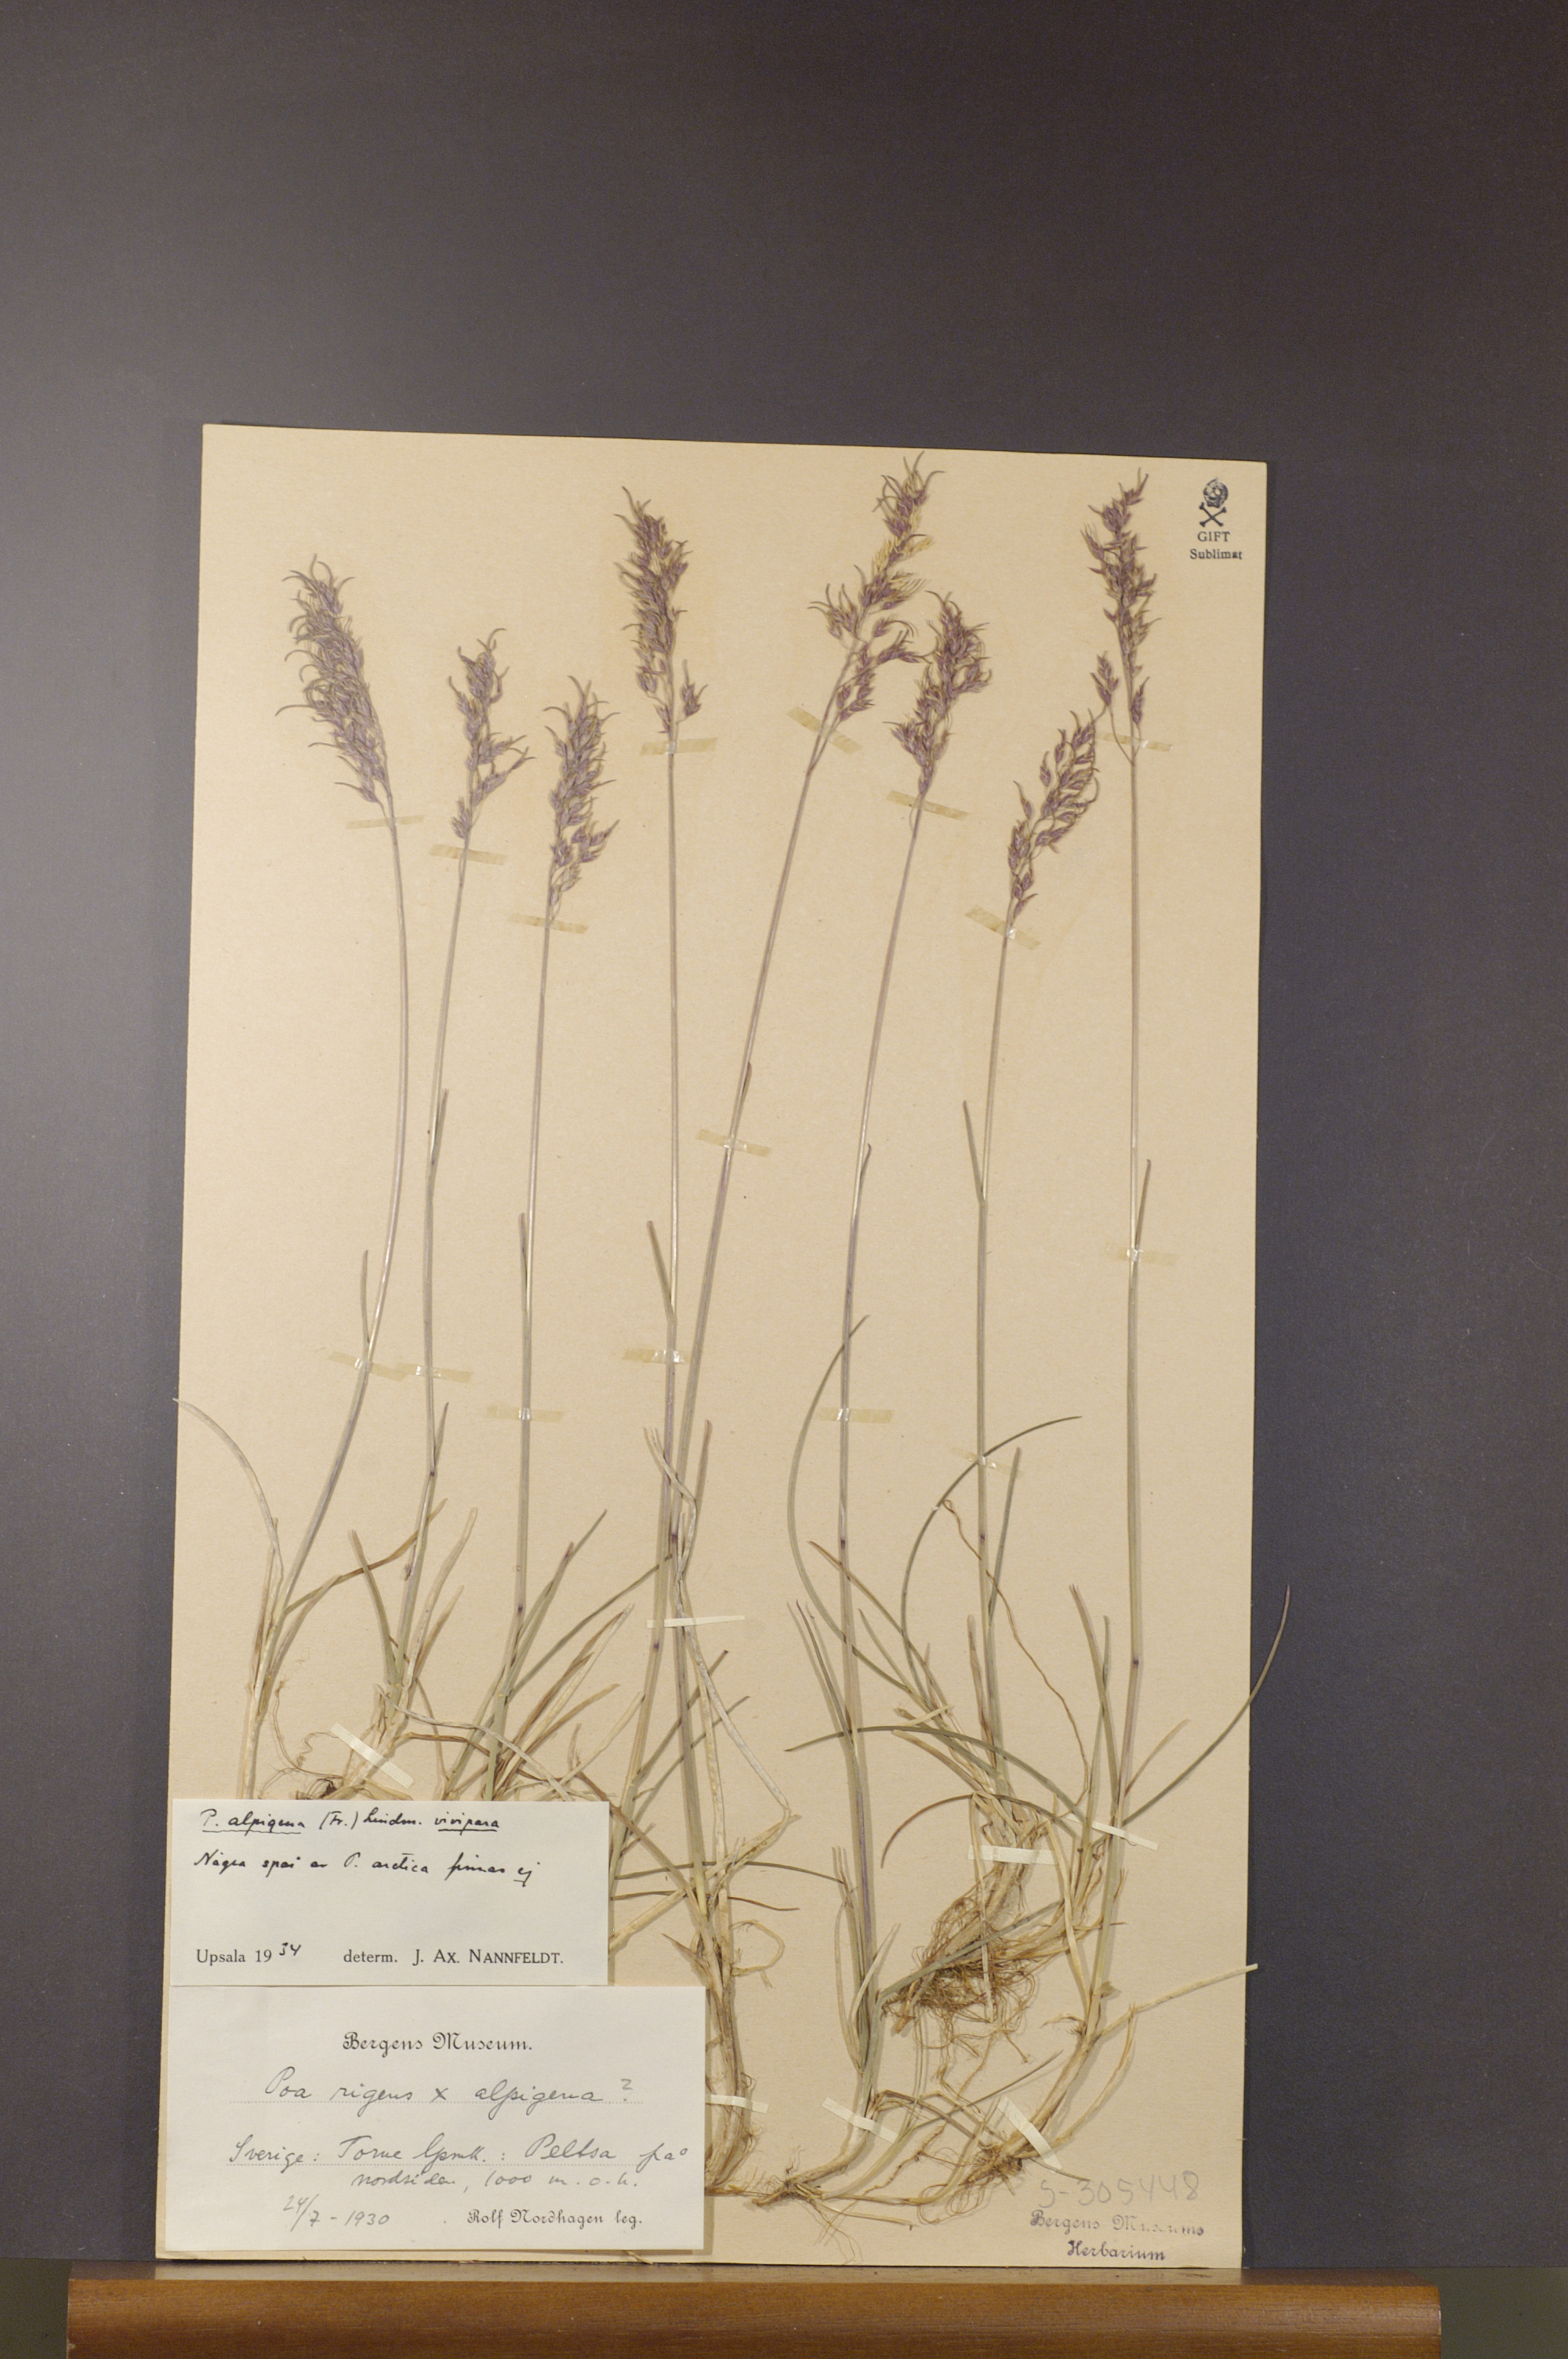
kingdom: Plantae
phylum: Tracheophyta
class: Liliopsida
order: Poales
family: Poaceae
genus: Poa
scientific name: Poa arctica
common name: Arctic bluegrass
